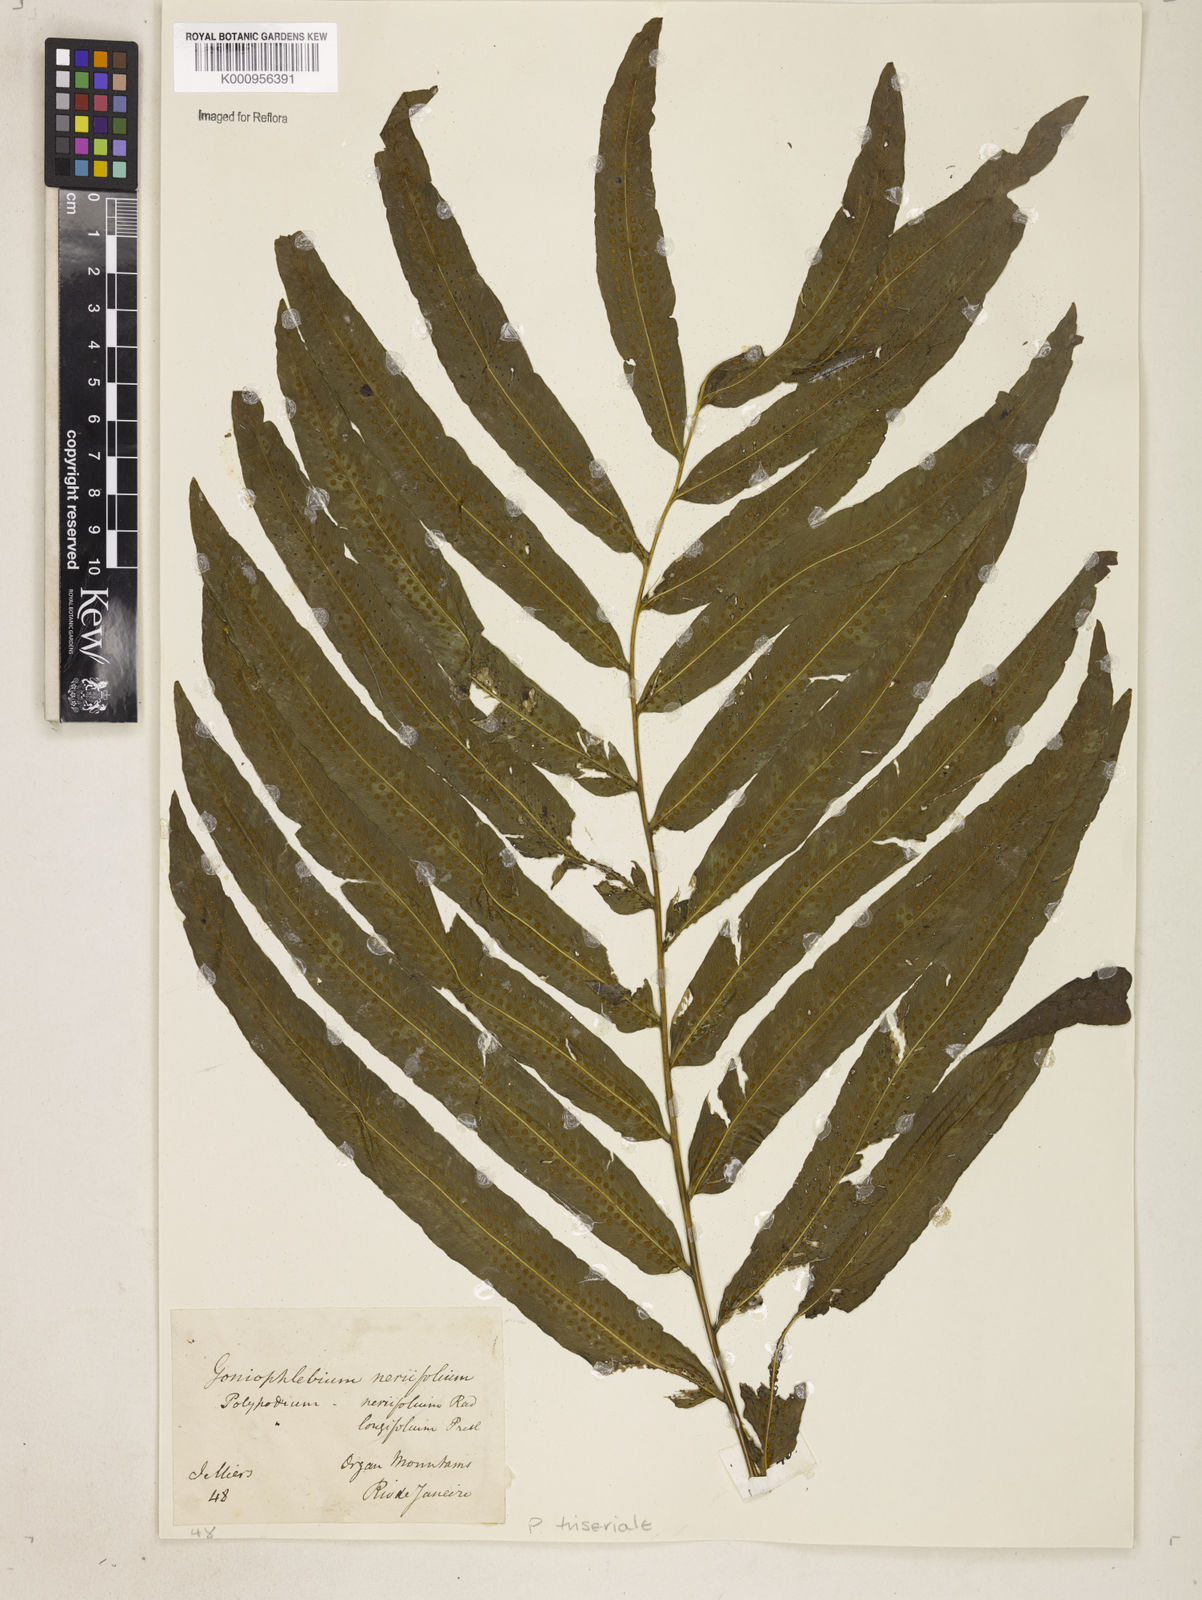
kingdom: Plantae
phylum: Tracheophyta
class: Polypodiopsida
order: Polypodiales
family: Polypodiaceae
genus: Serpocaulon
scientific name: Serpocaulon triseriale
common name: Angle-vein fern
